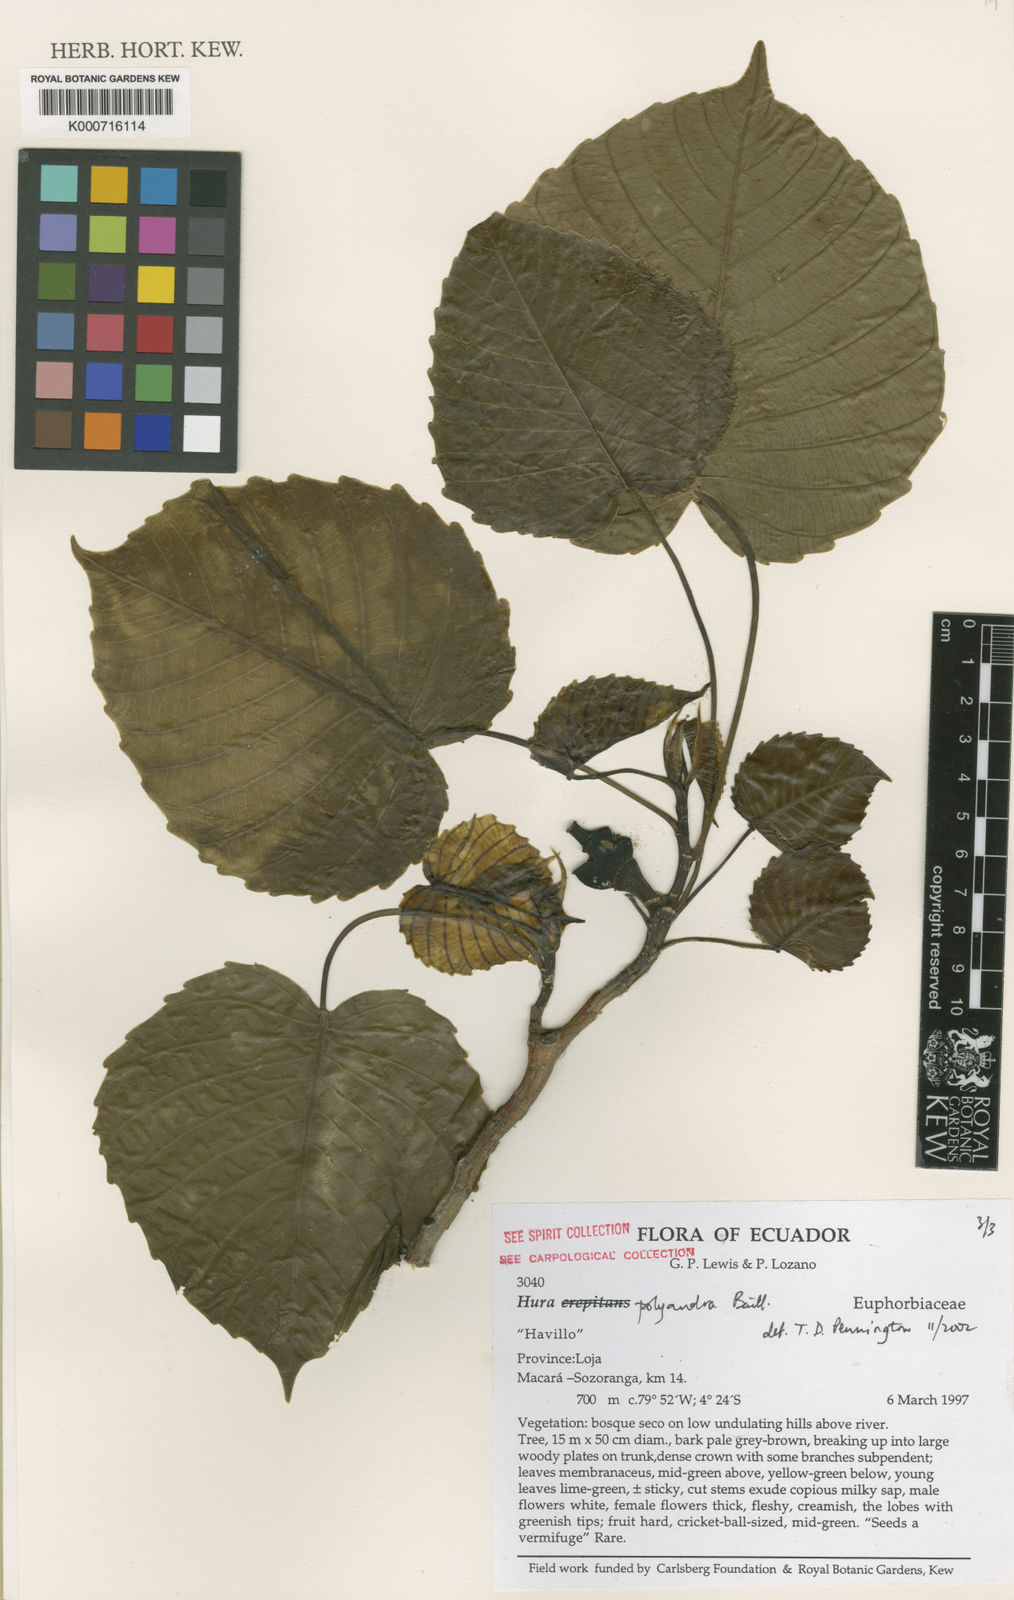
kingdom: Plantae
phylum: Tracheophyta
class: Magnoliopsida
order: Malpighiales
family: Euphorbiaceae
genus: Hura
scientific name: Hura polyandra
